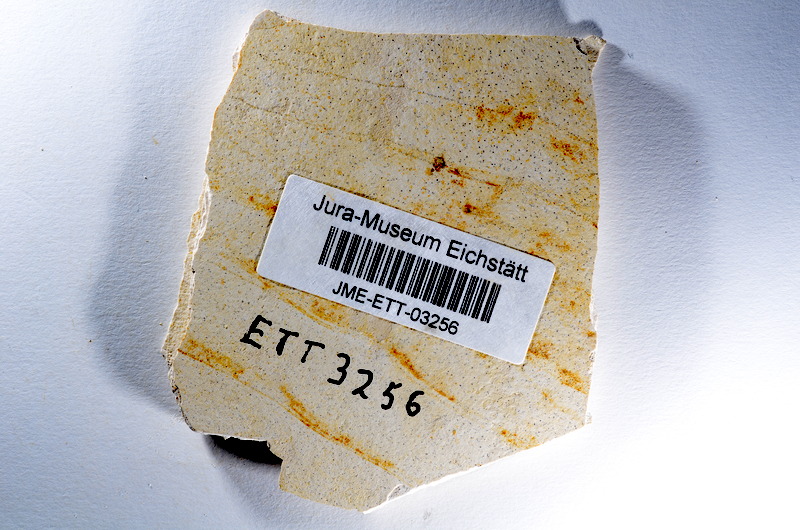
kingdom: Animalia
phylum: Chordata
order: Salmoniformes
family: Orthogonikleithridae
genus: Orthogonikleithrus
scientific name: Orthogonikleithrus hoelli
